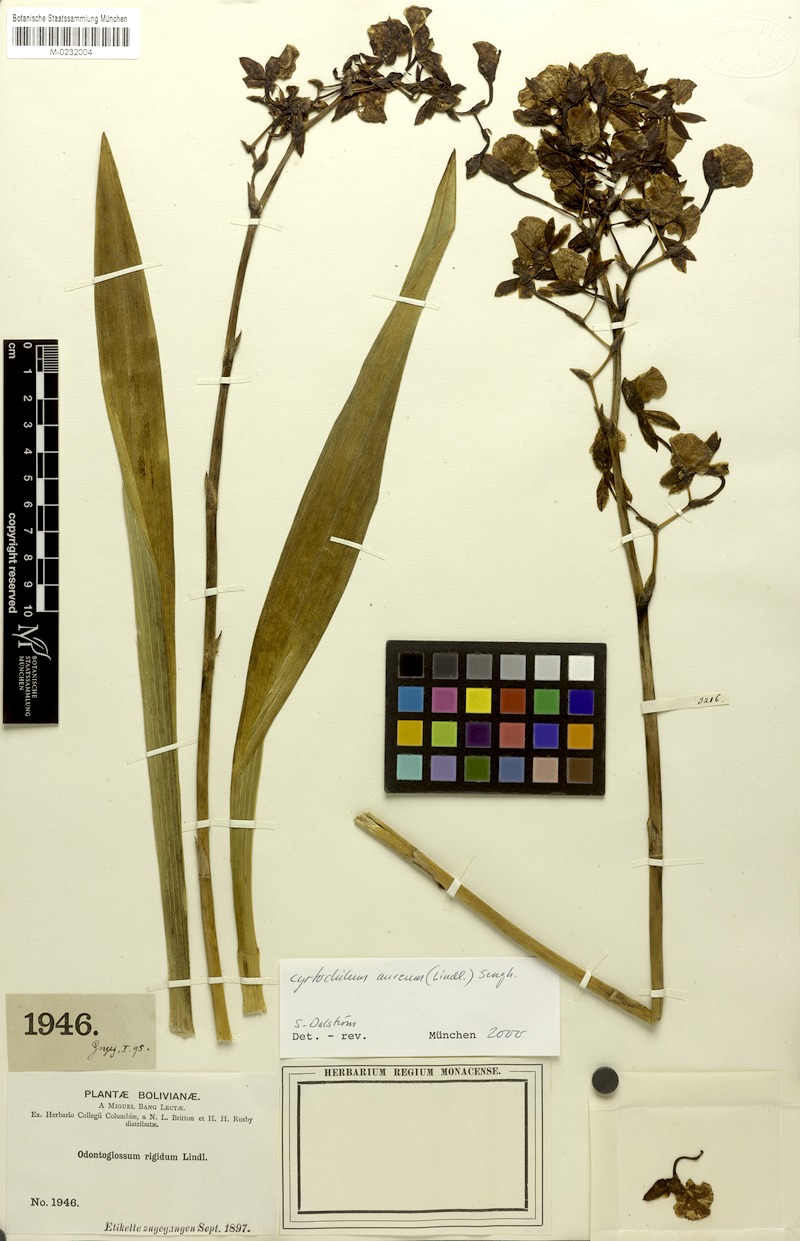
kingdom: Plantae
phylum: Tracheophyta
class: Liliopsida
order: Asparagales
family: Orchidaceae
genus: Cyrtochilum
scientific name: Cyrtochilum aureum
